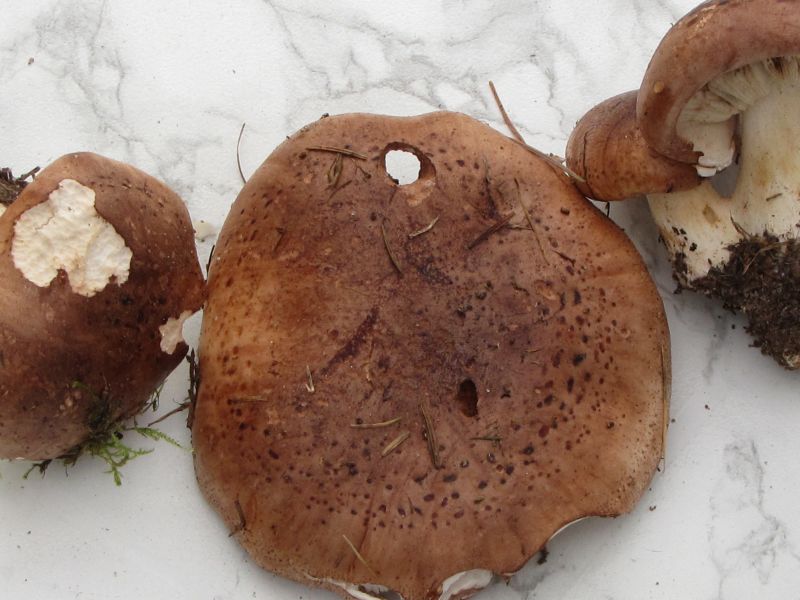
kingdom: Fungi
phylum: Basidiomycota
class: Agaricomycetes
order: Agaricales
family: Tricholomataceae
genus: Tricholoma
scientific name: Tricholoma pessundatum
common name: dråbeplettet ridderhat
